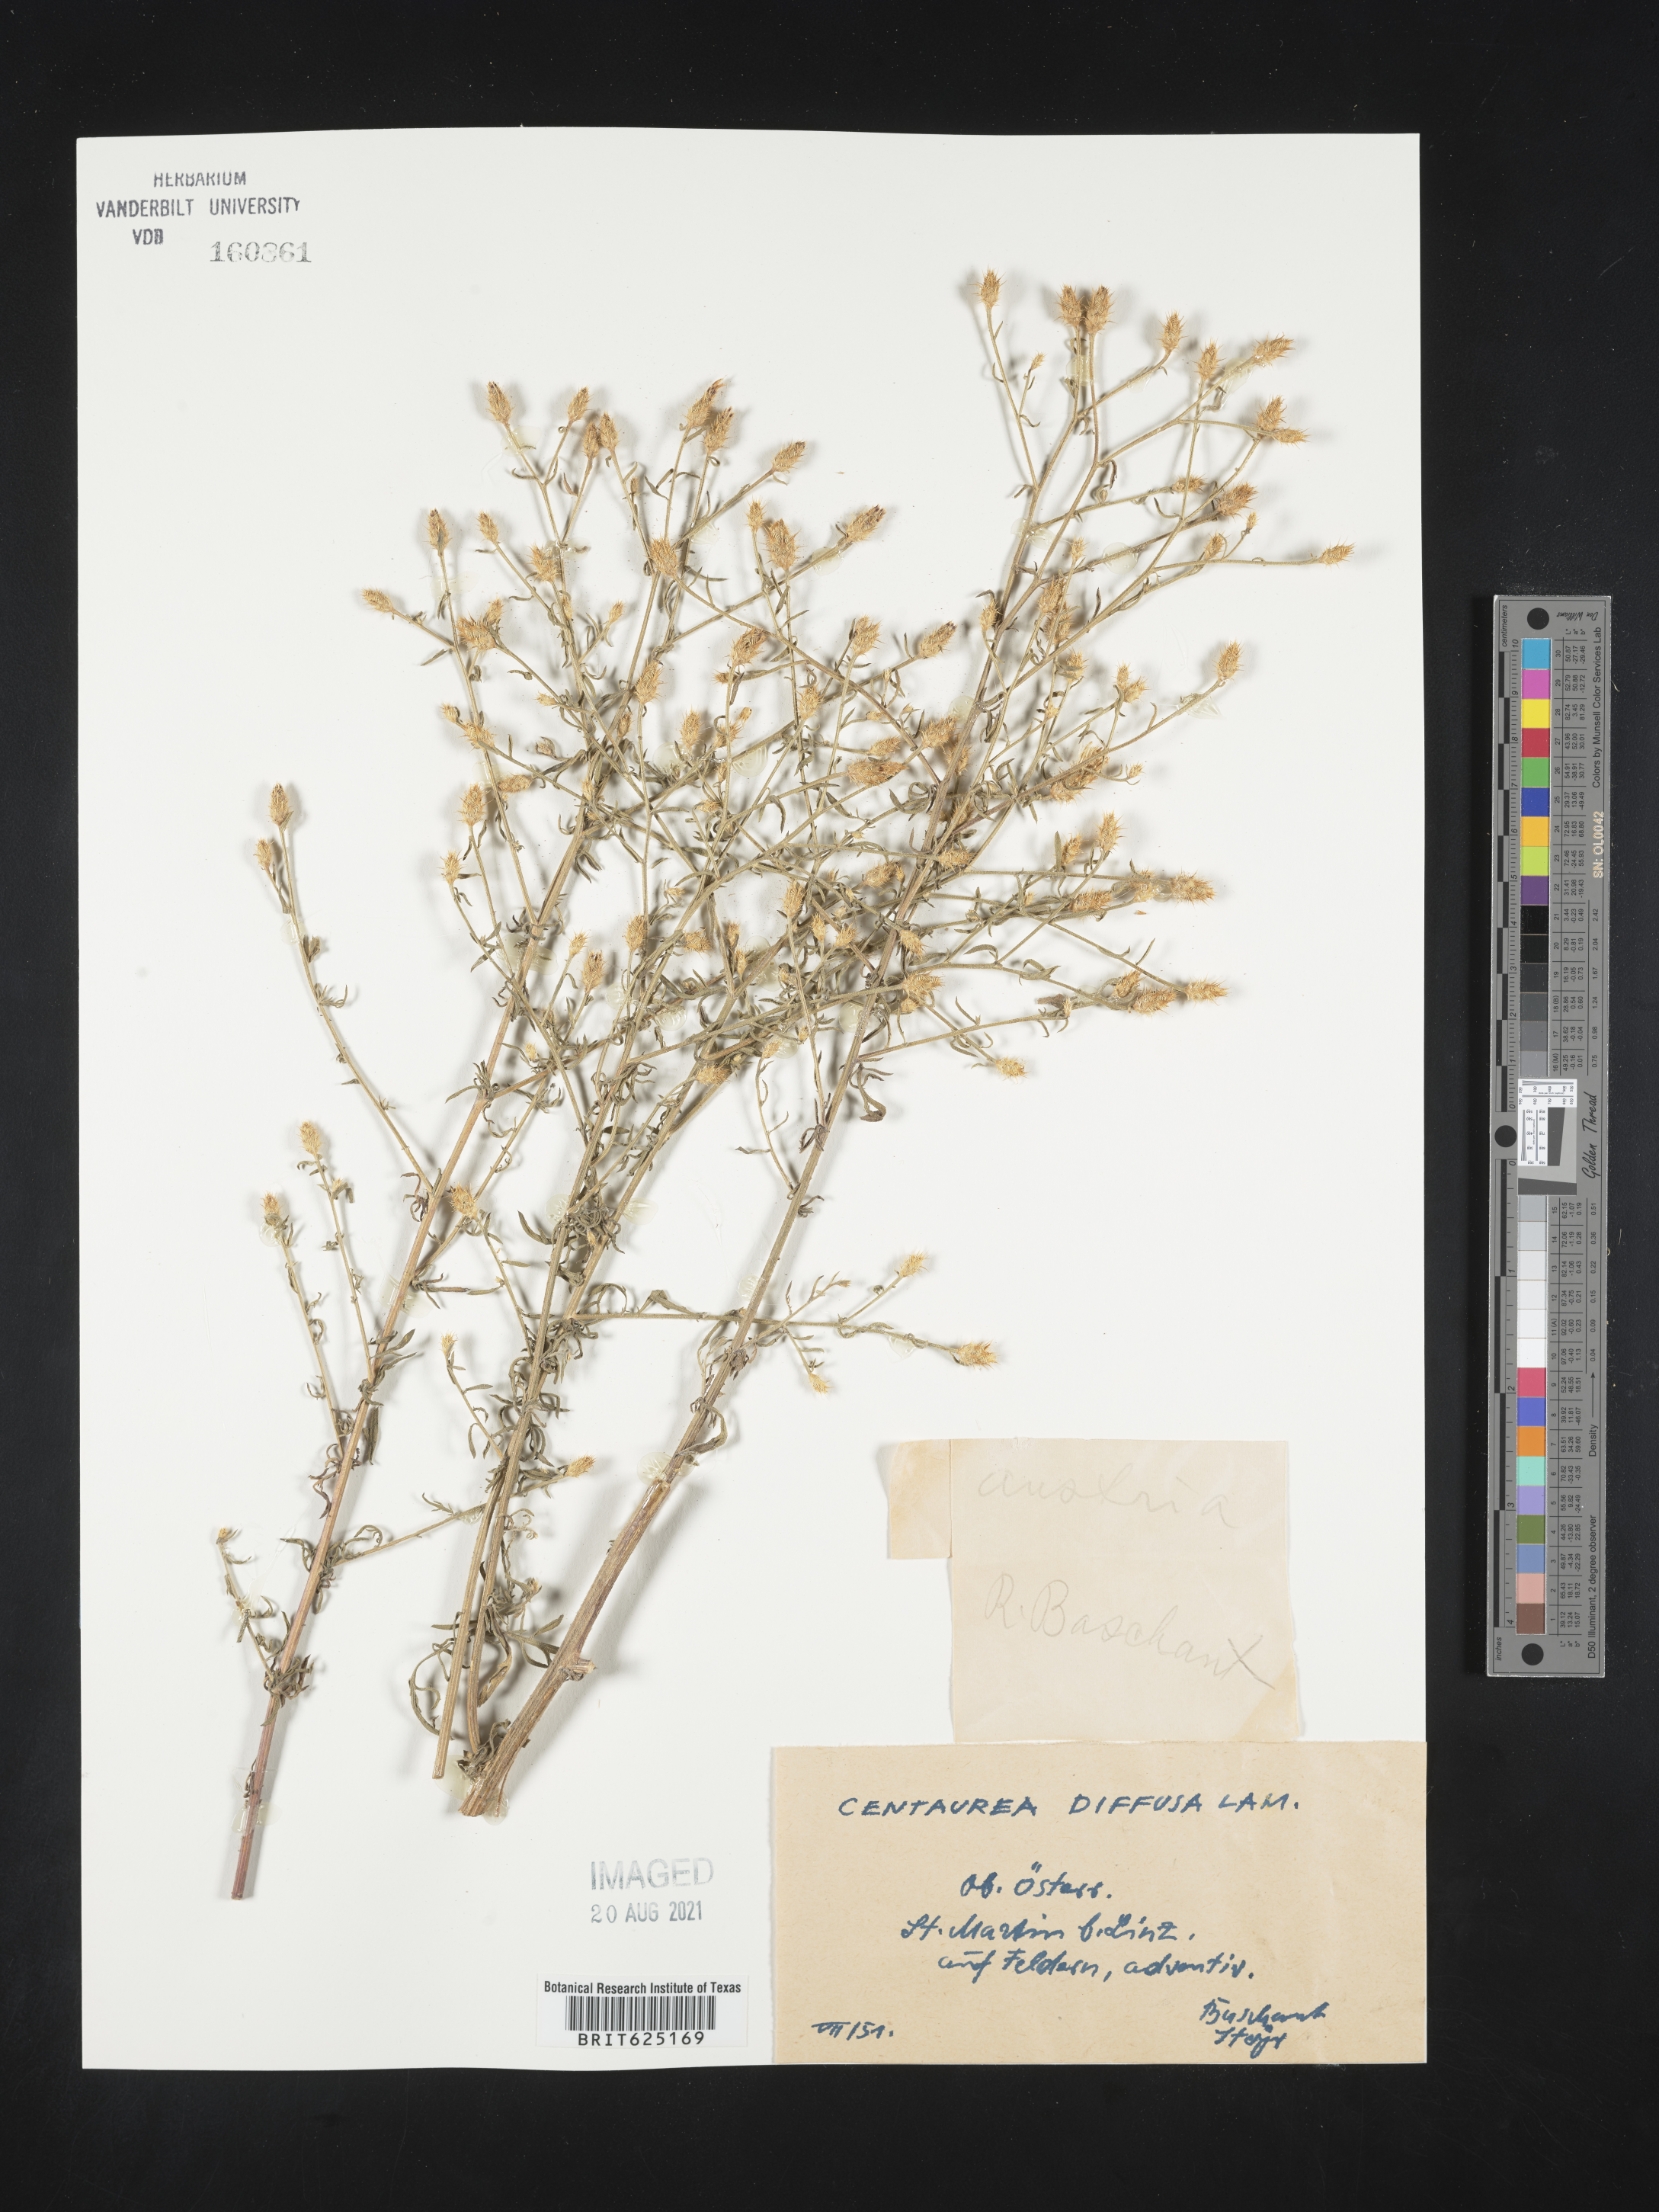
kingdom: Plantae
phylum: Tracheophyta
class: Magnoliopsida
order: Asterales
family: Asteraceae
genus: Centaurea
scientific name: Centaurea diffusa
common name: Diffuse knapweed
